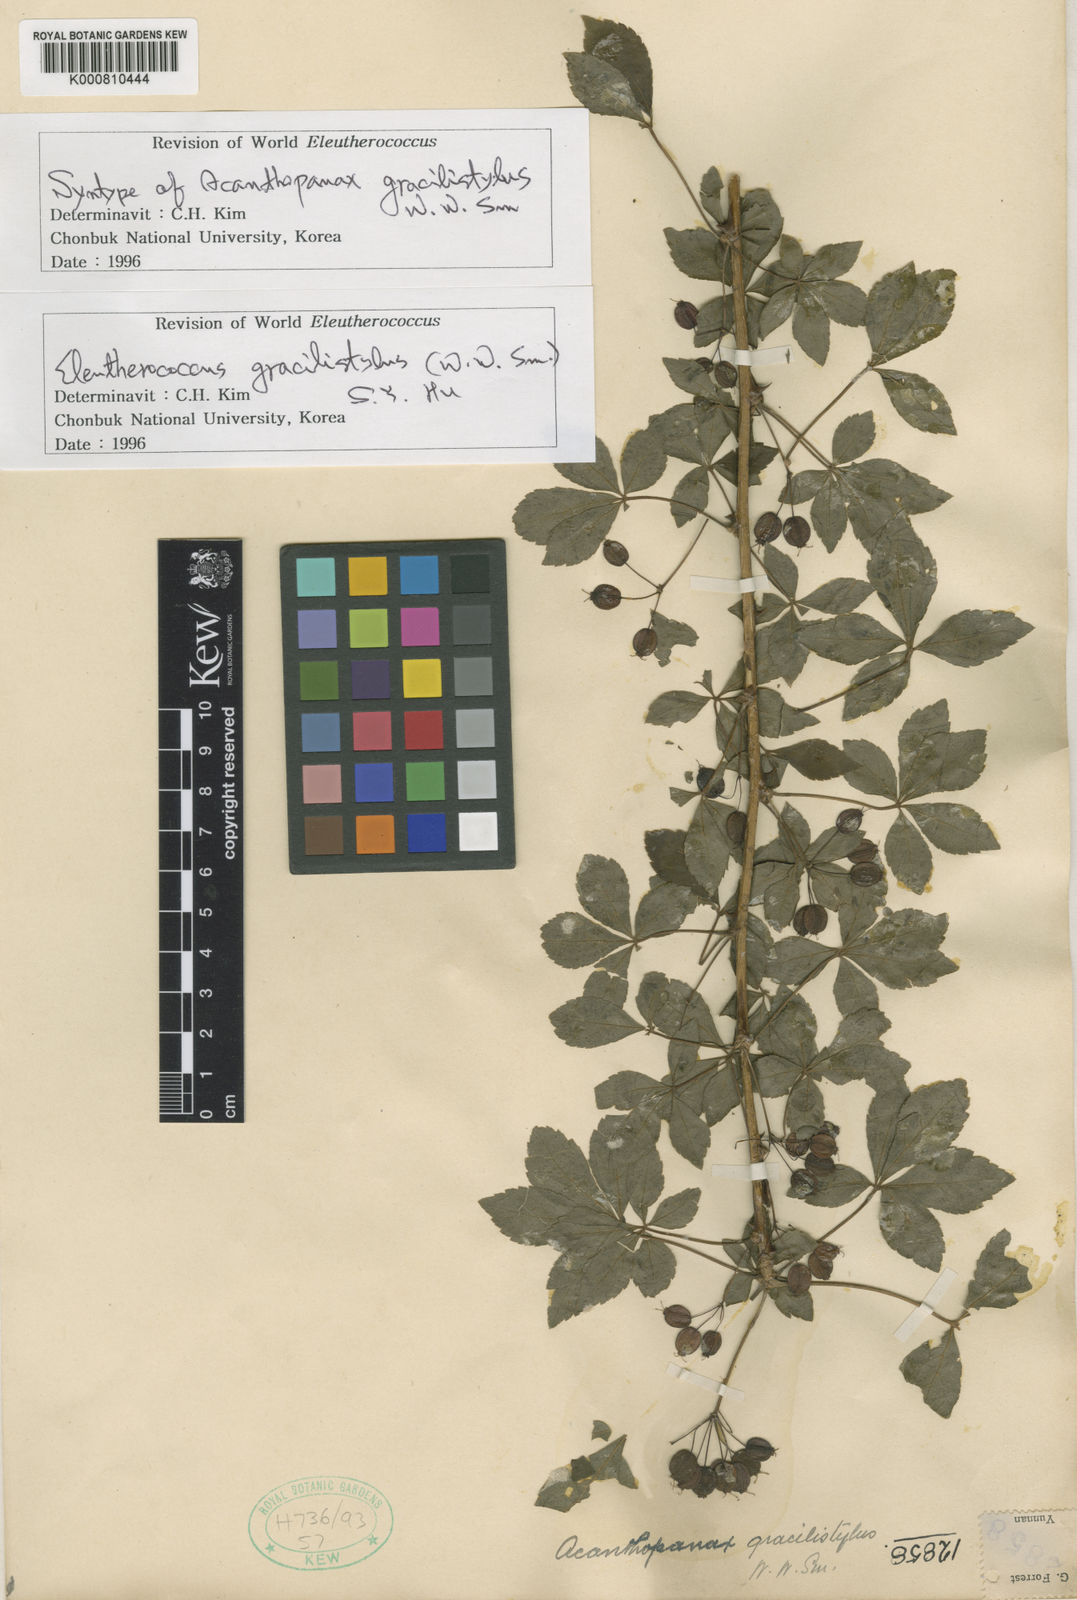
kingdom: Plantae
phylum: Tracheophyta
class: Magnoliopsida
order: Apiales
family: Araliaceae
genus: Eleutherococcus
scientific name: Eleutherococcus nodiflorus
